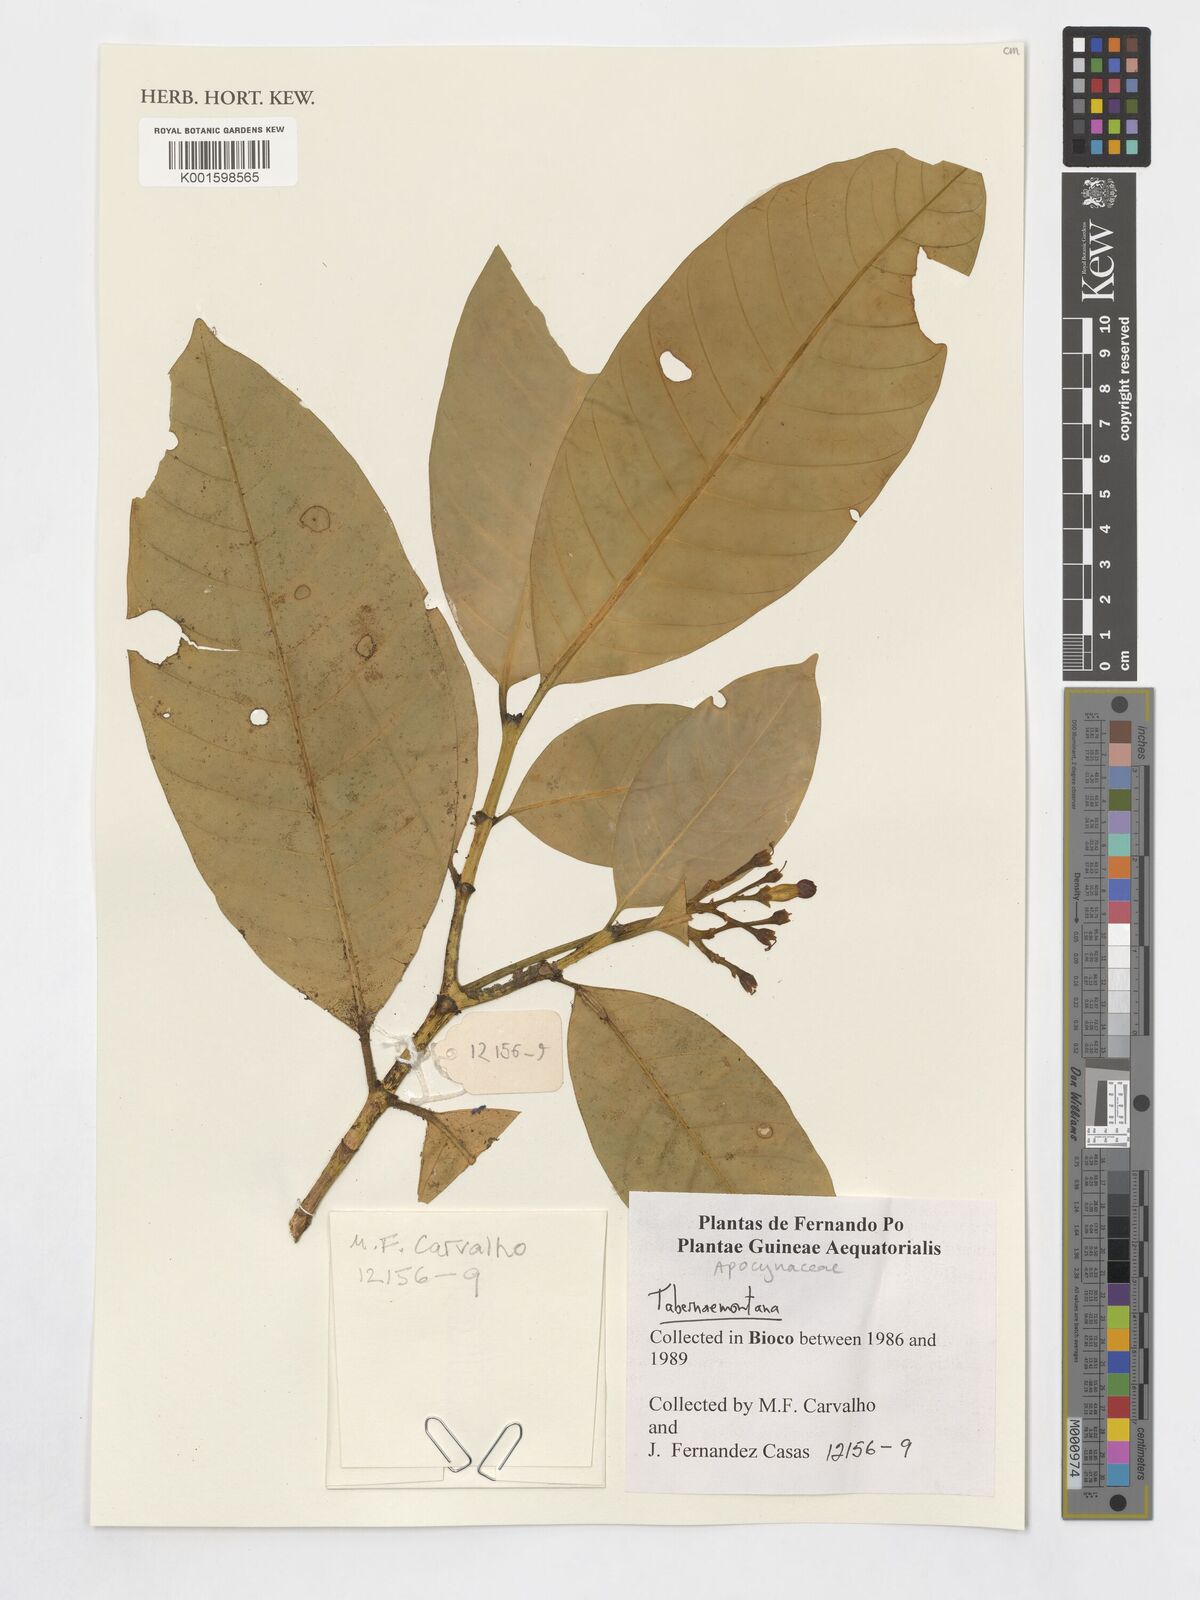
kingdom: Plantae
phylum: Tracheophyta
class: Magnoliopsida
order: Gentianales
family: Apocynaceae
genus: Tabernaemontana
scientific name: Tabernaemontana
